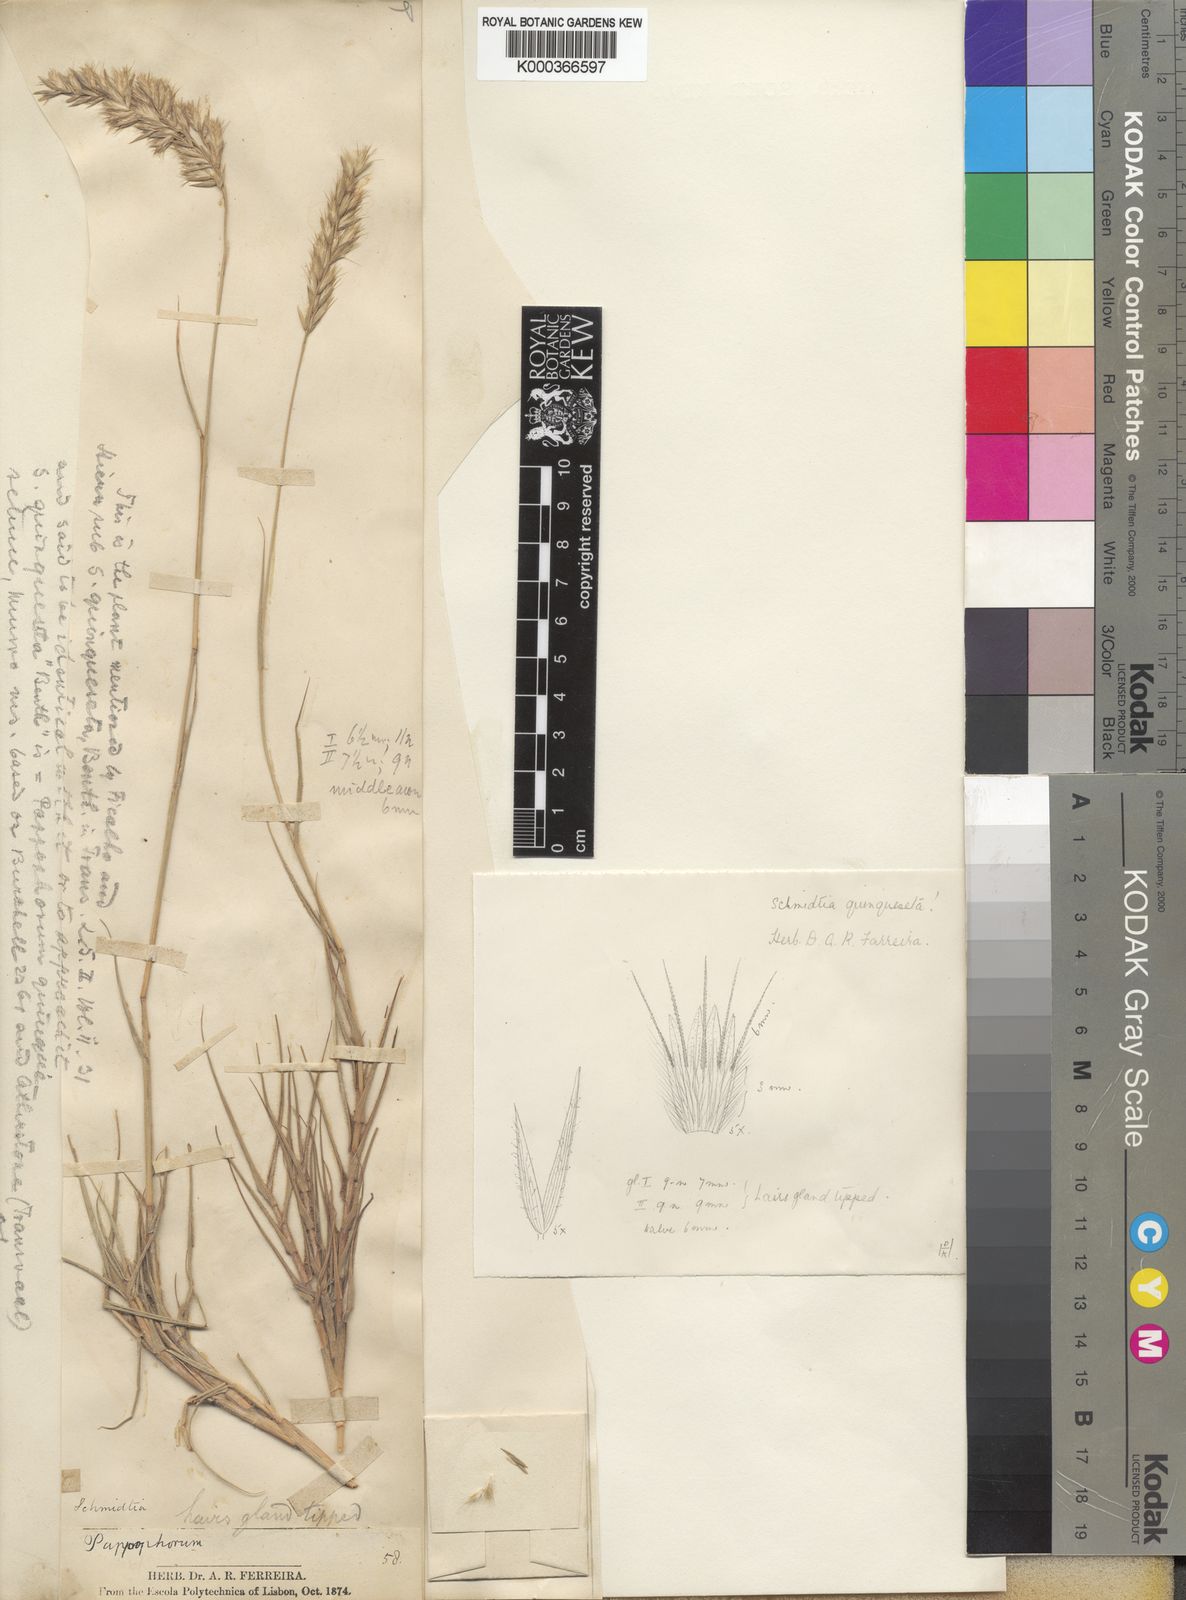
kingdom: Plantae
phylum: Tracheophyta
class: Liliopsida
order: Poales
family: Poaceae
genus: Schmidtia
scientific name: Schmidtia pappophoroides
